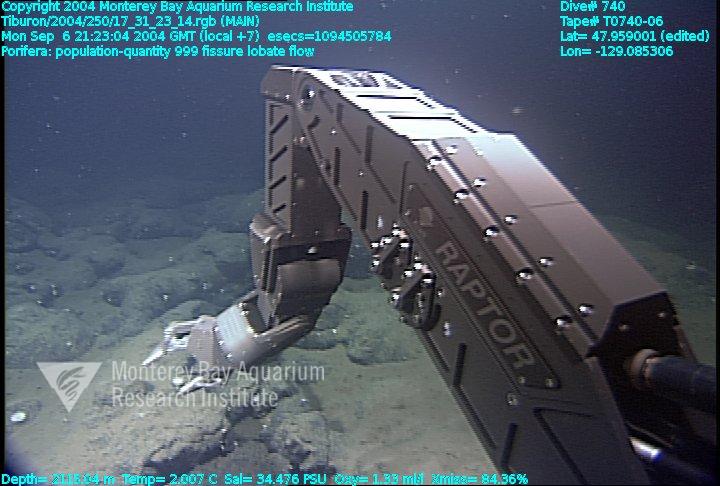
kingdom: Animalia
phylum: Porifera
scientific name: Porifera
